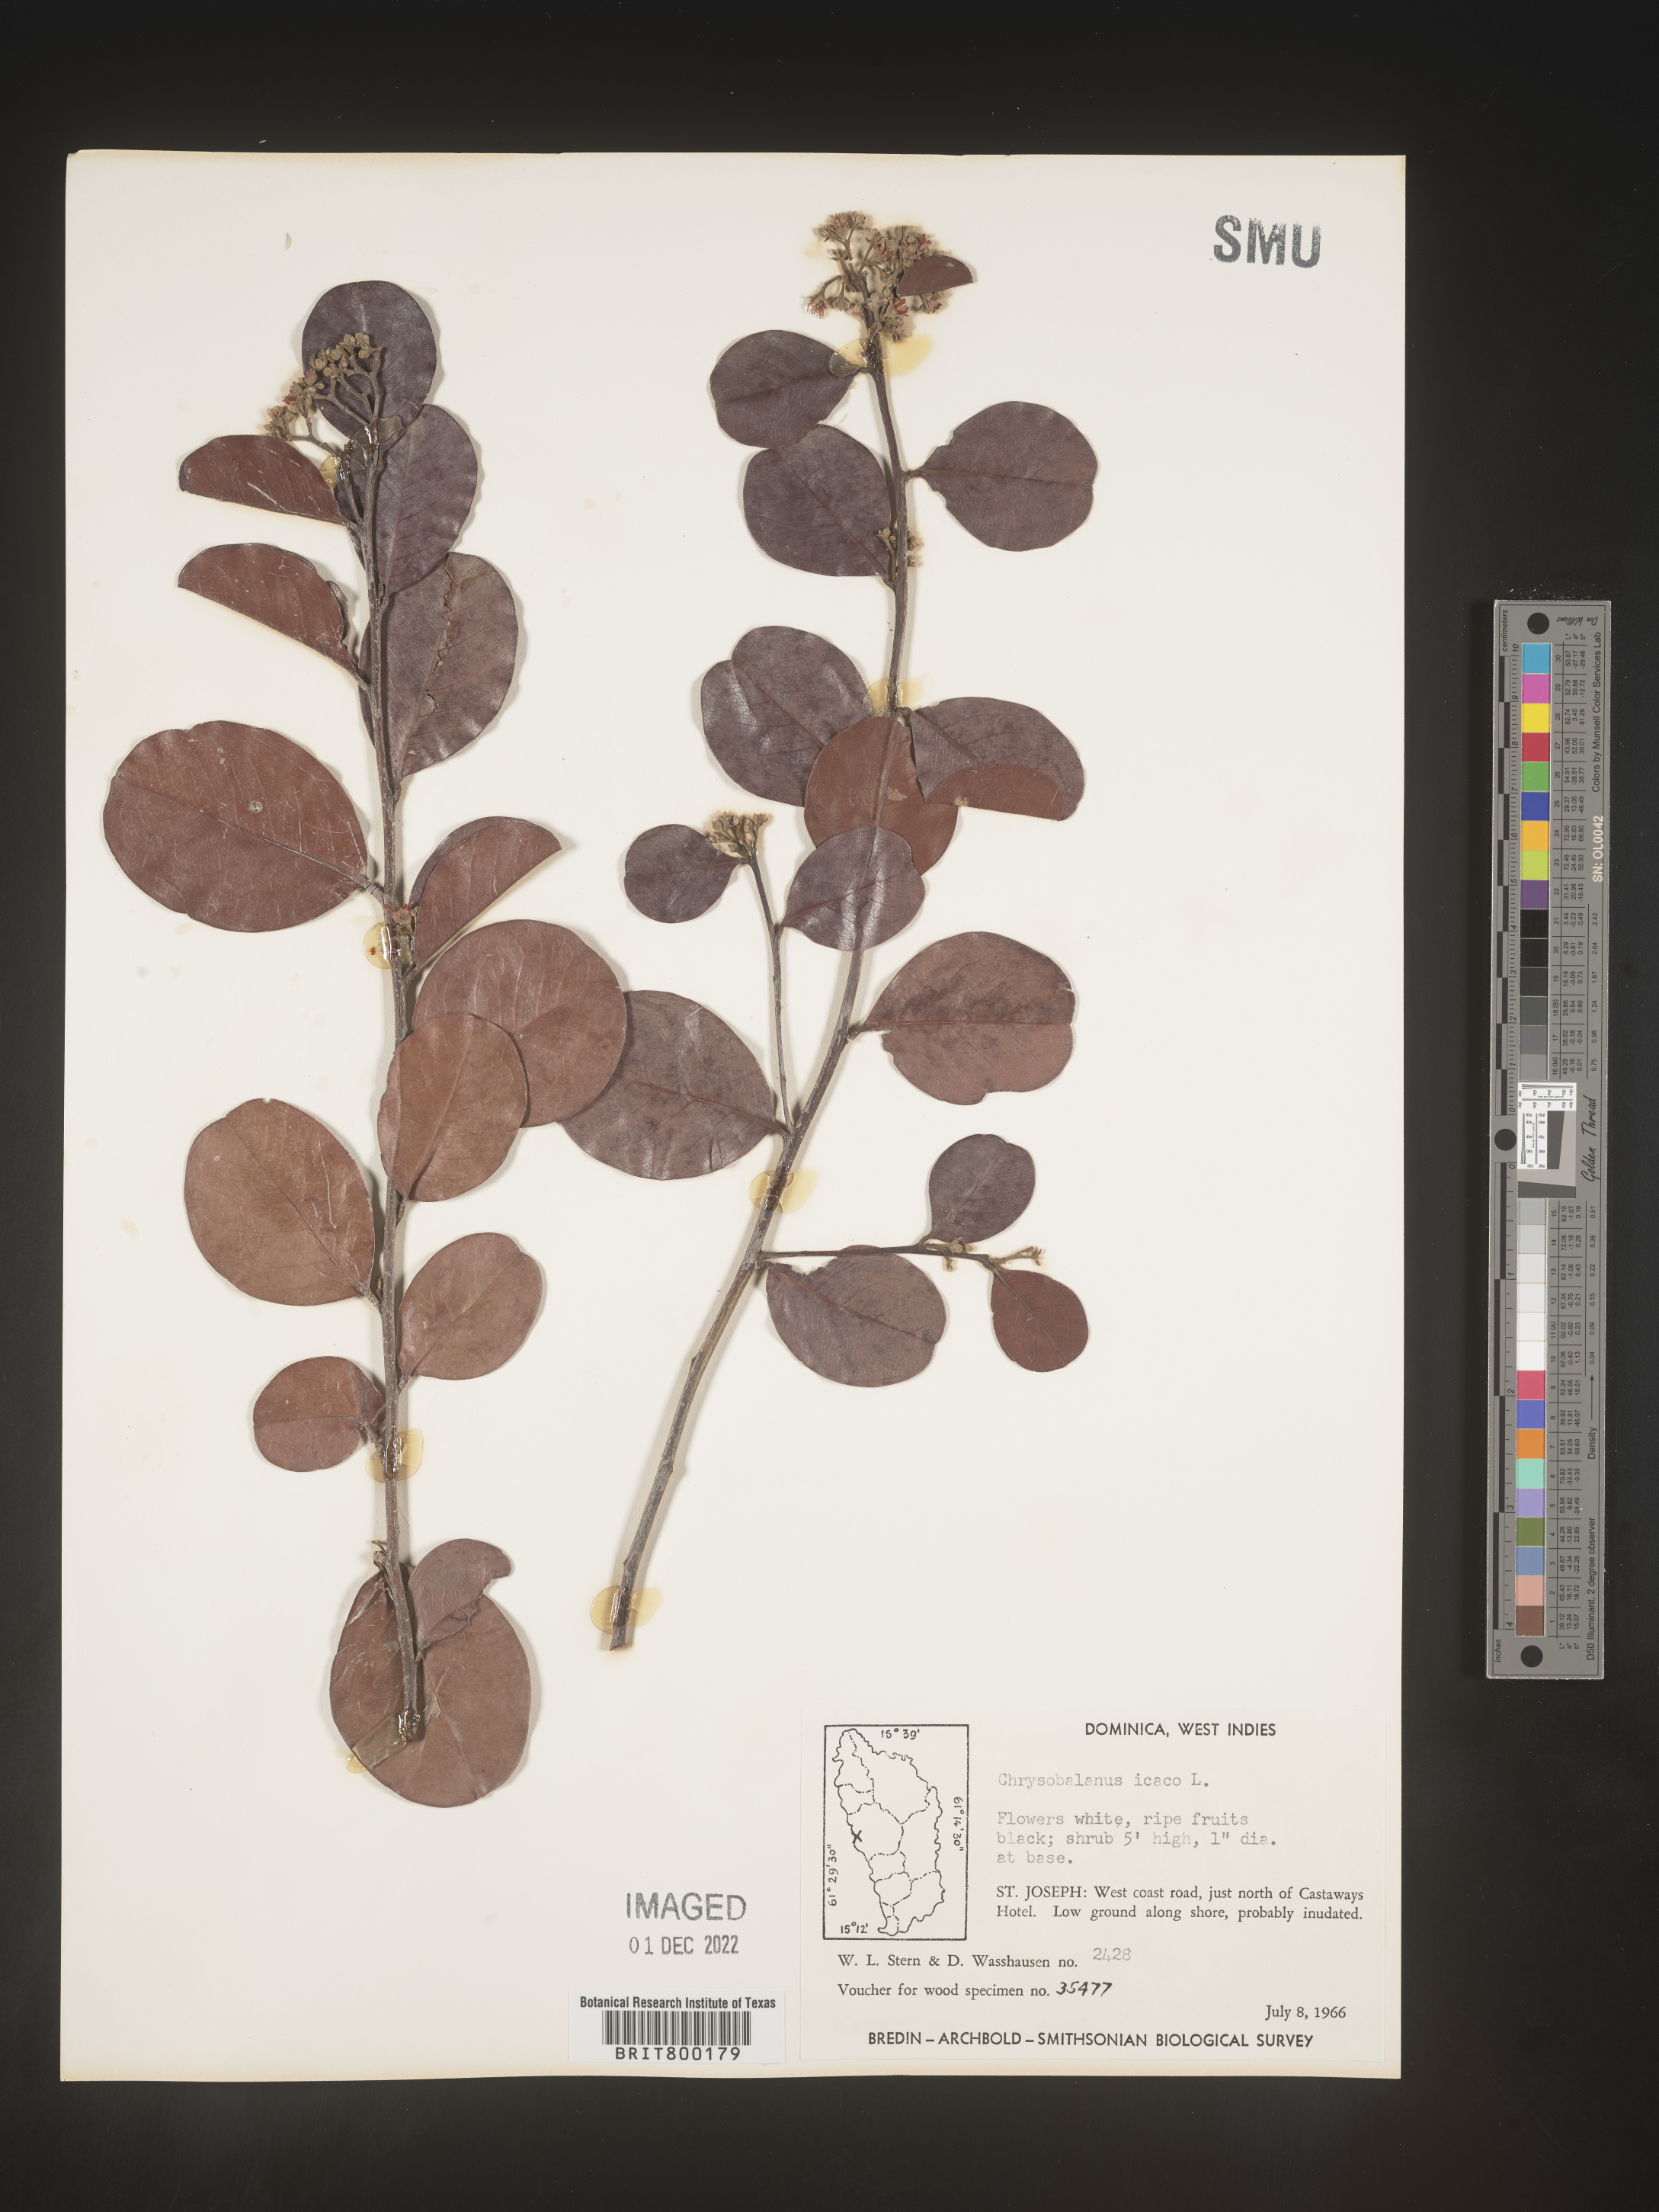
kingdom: Plantae
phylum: Tracheophyta
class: Magnoliopsida
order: Malpighiales
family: Chrysobalanaceae
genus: Chrysobalanus
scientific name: Chrysobalanus
